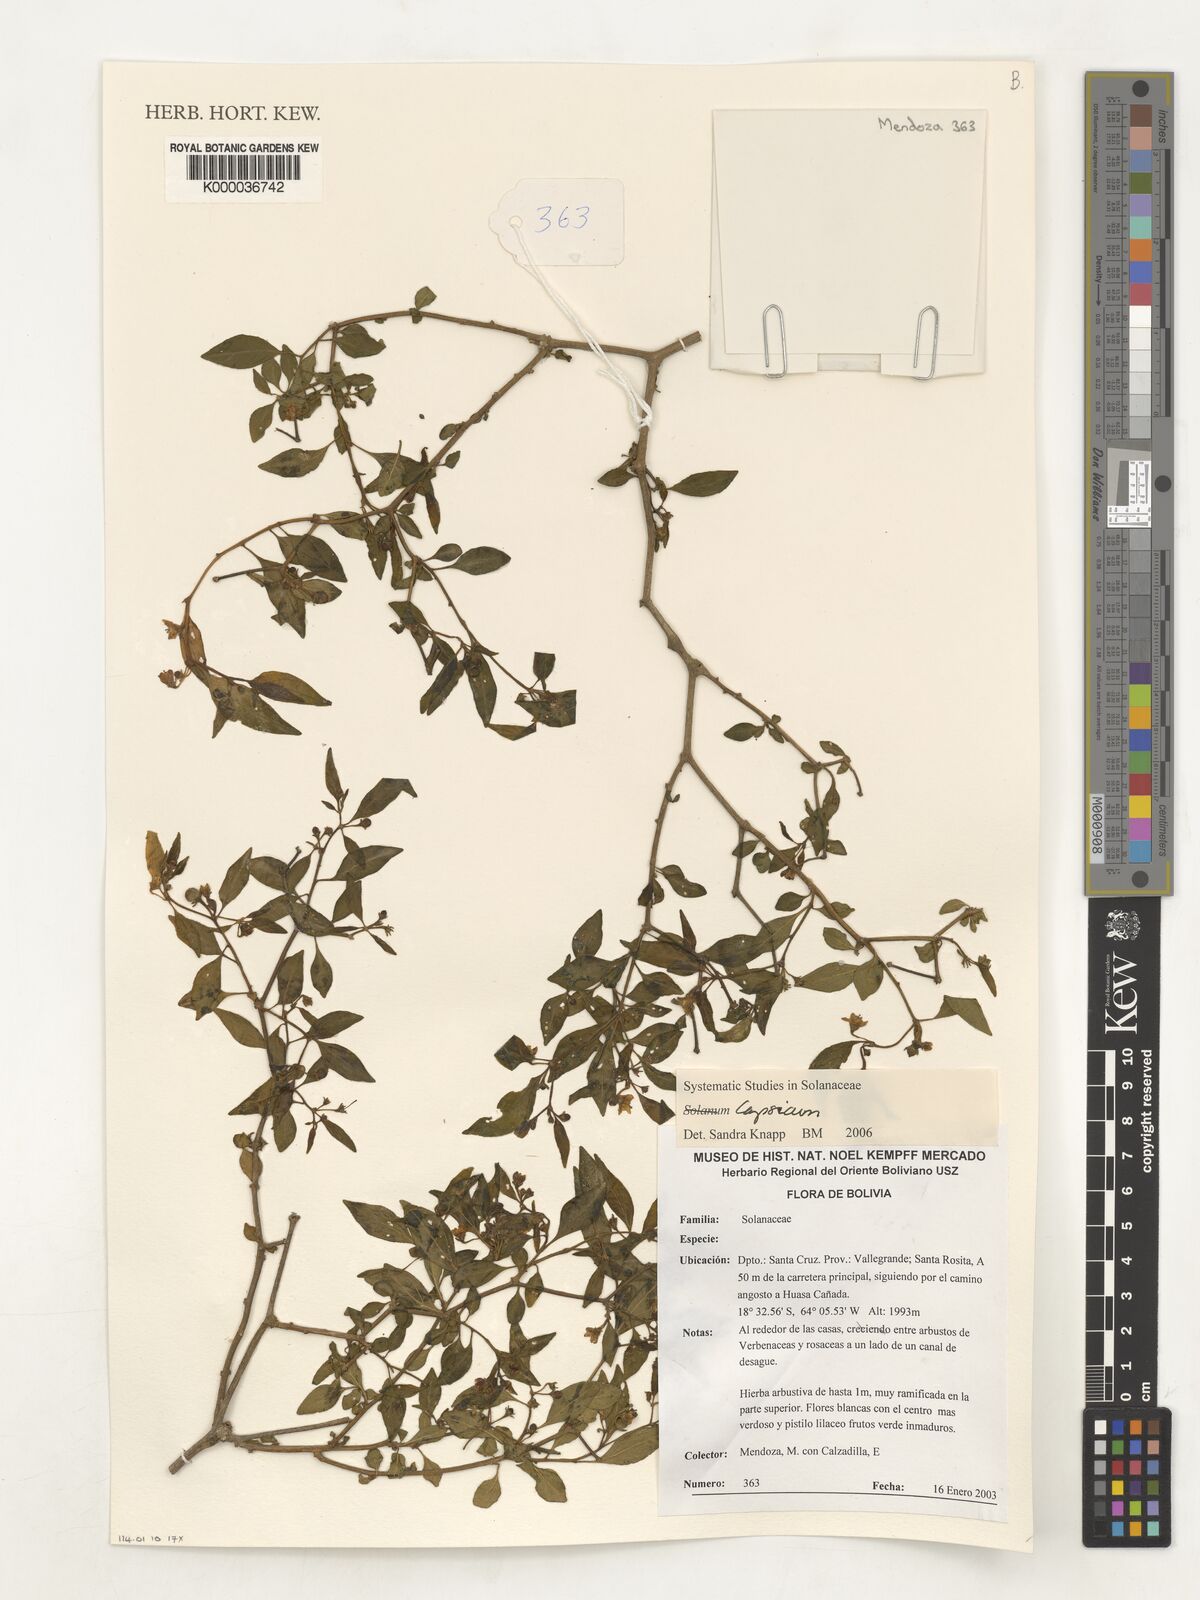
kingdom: Plantae
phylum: Tracheophyta
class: Magnoliopsida
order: Solanales
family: Solanaceae
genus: Capsicum
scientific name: Capsicum
